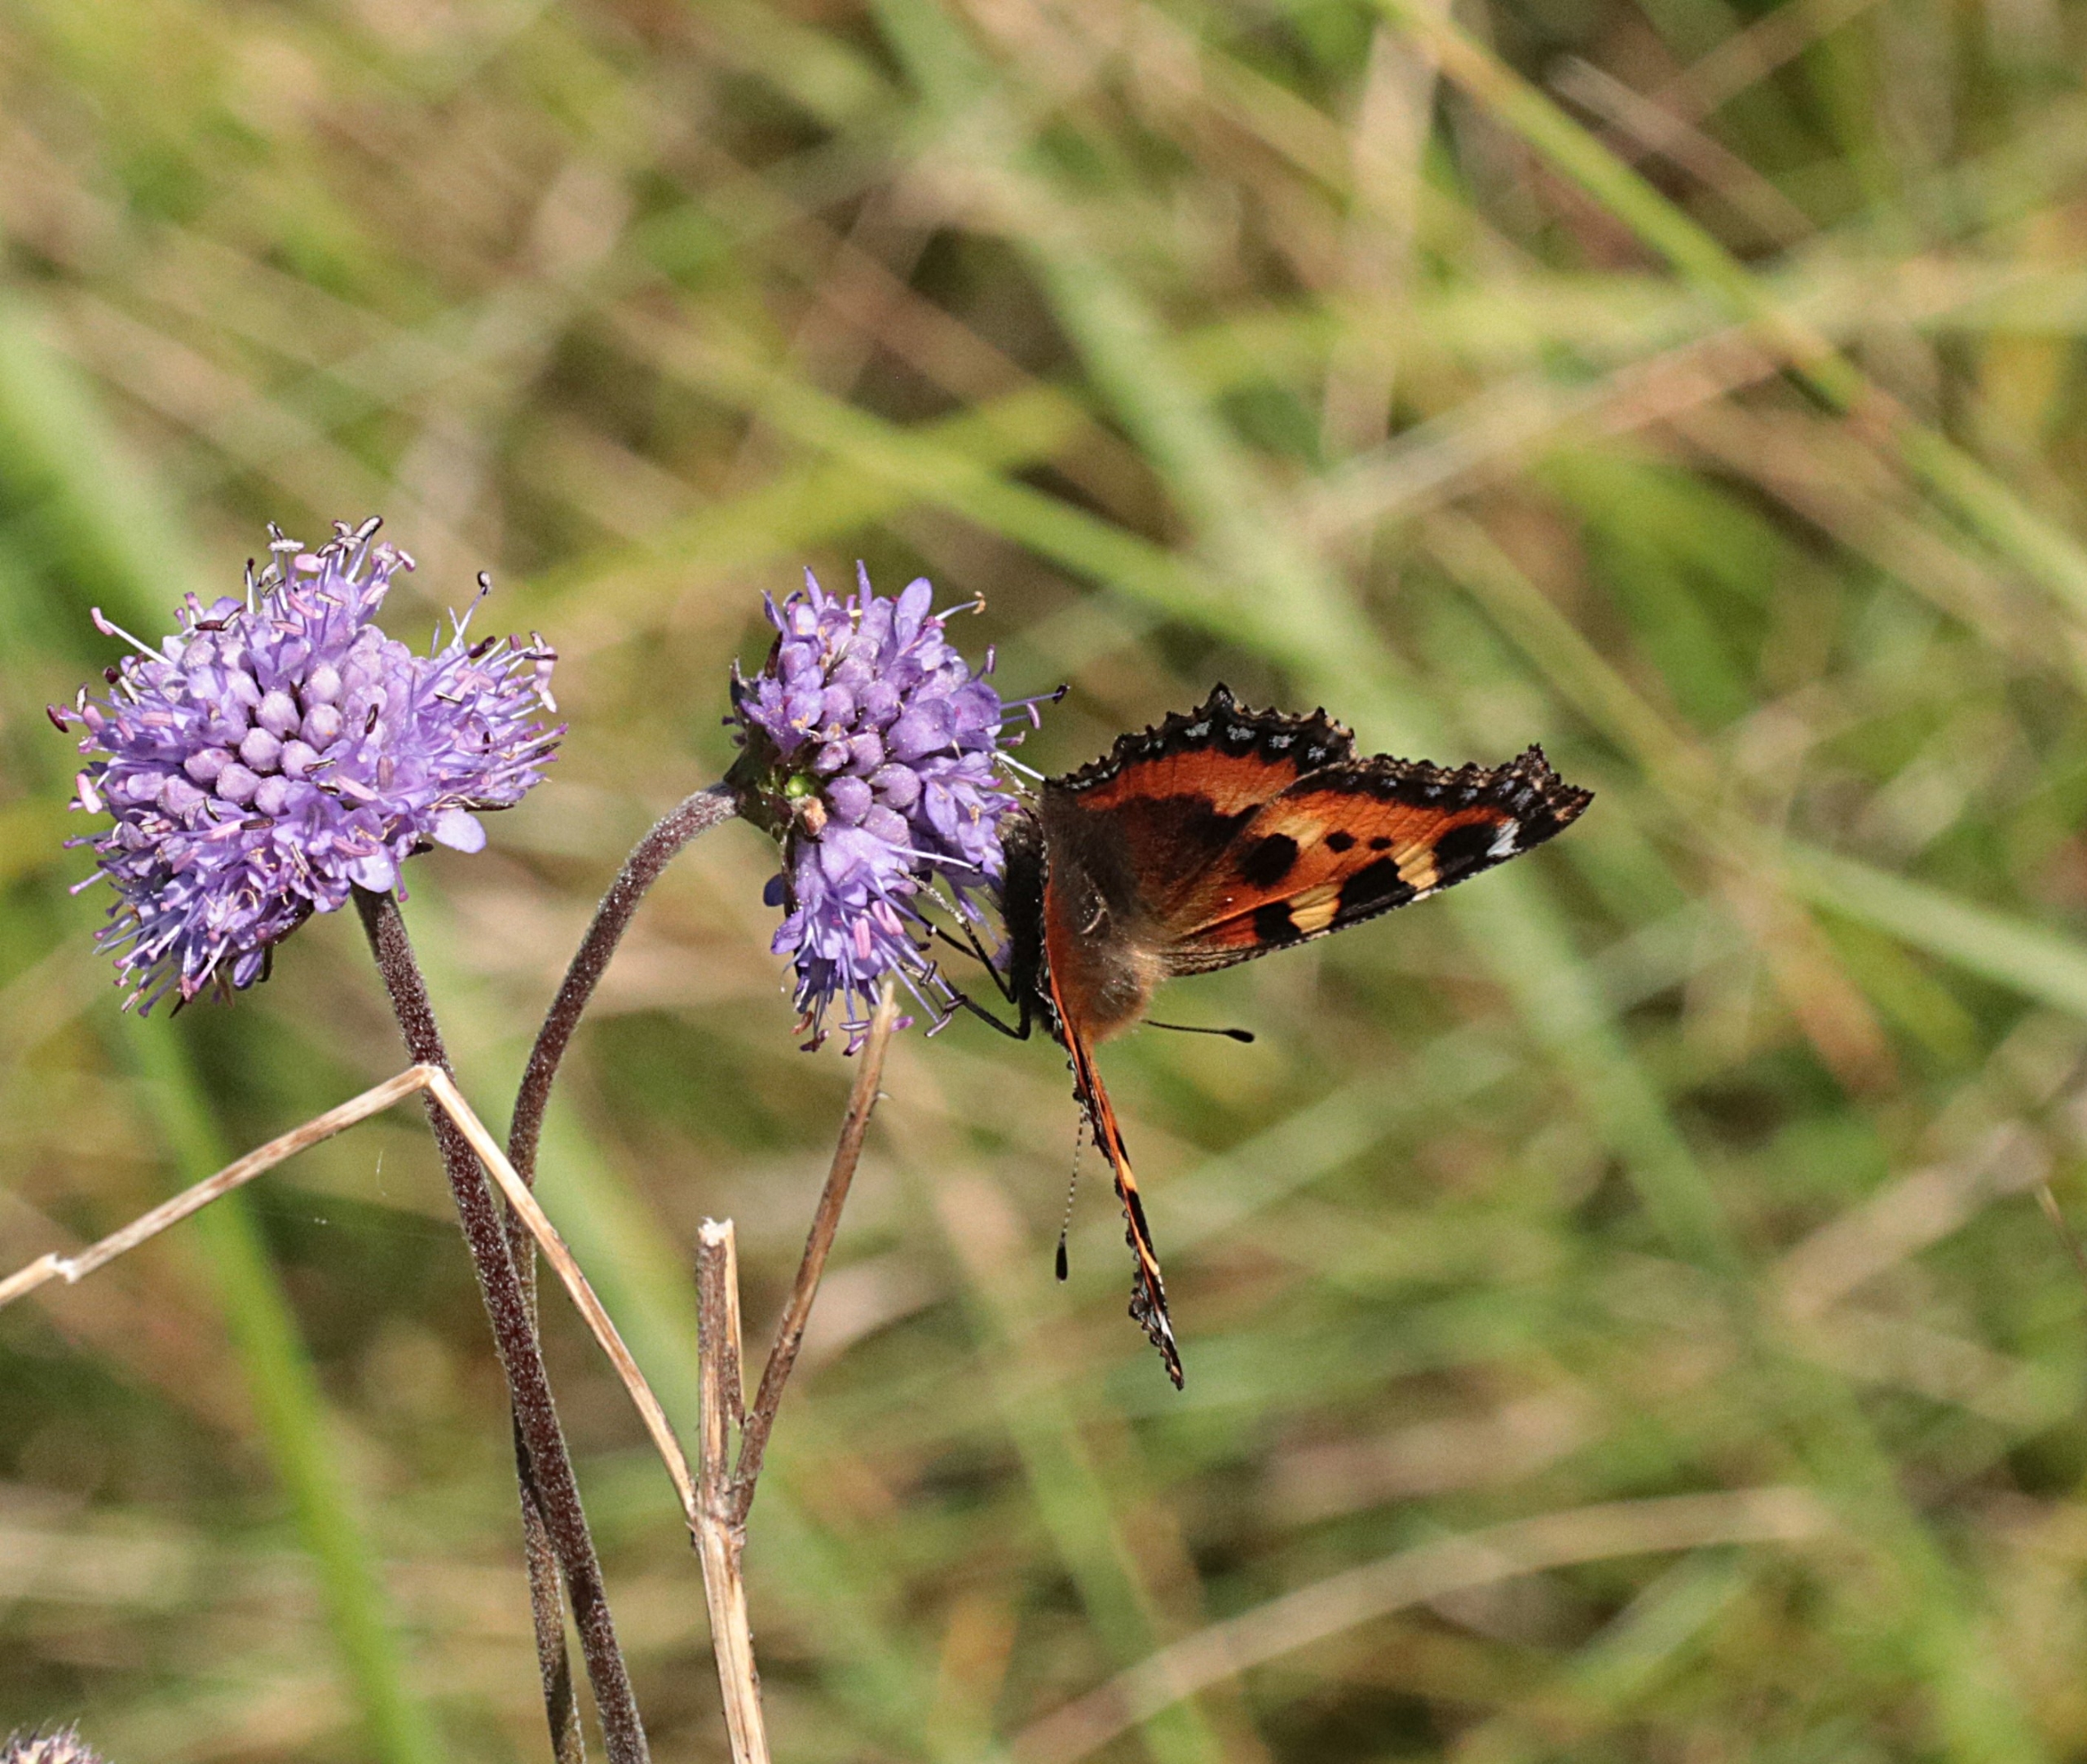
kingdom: Animalia
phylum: Arthropoda
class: Insecta
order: Lepidoptera
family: Nymphalidae
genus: Aglais
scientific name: Aglais urticae
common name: Nældens takvinge
